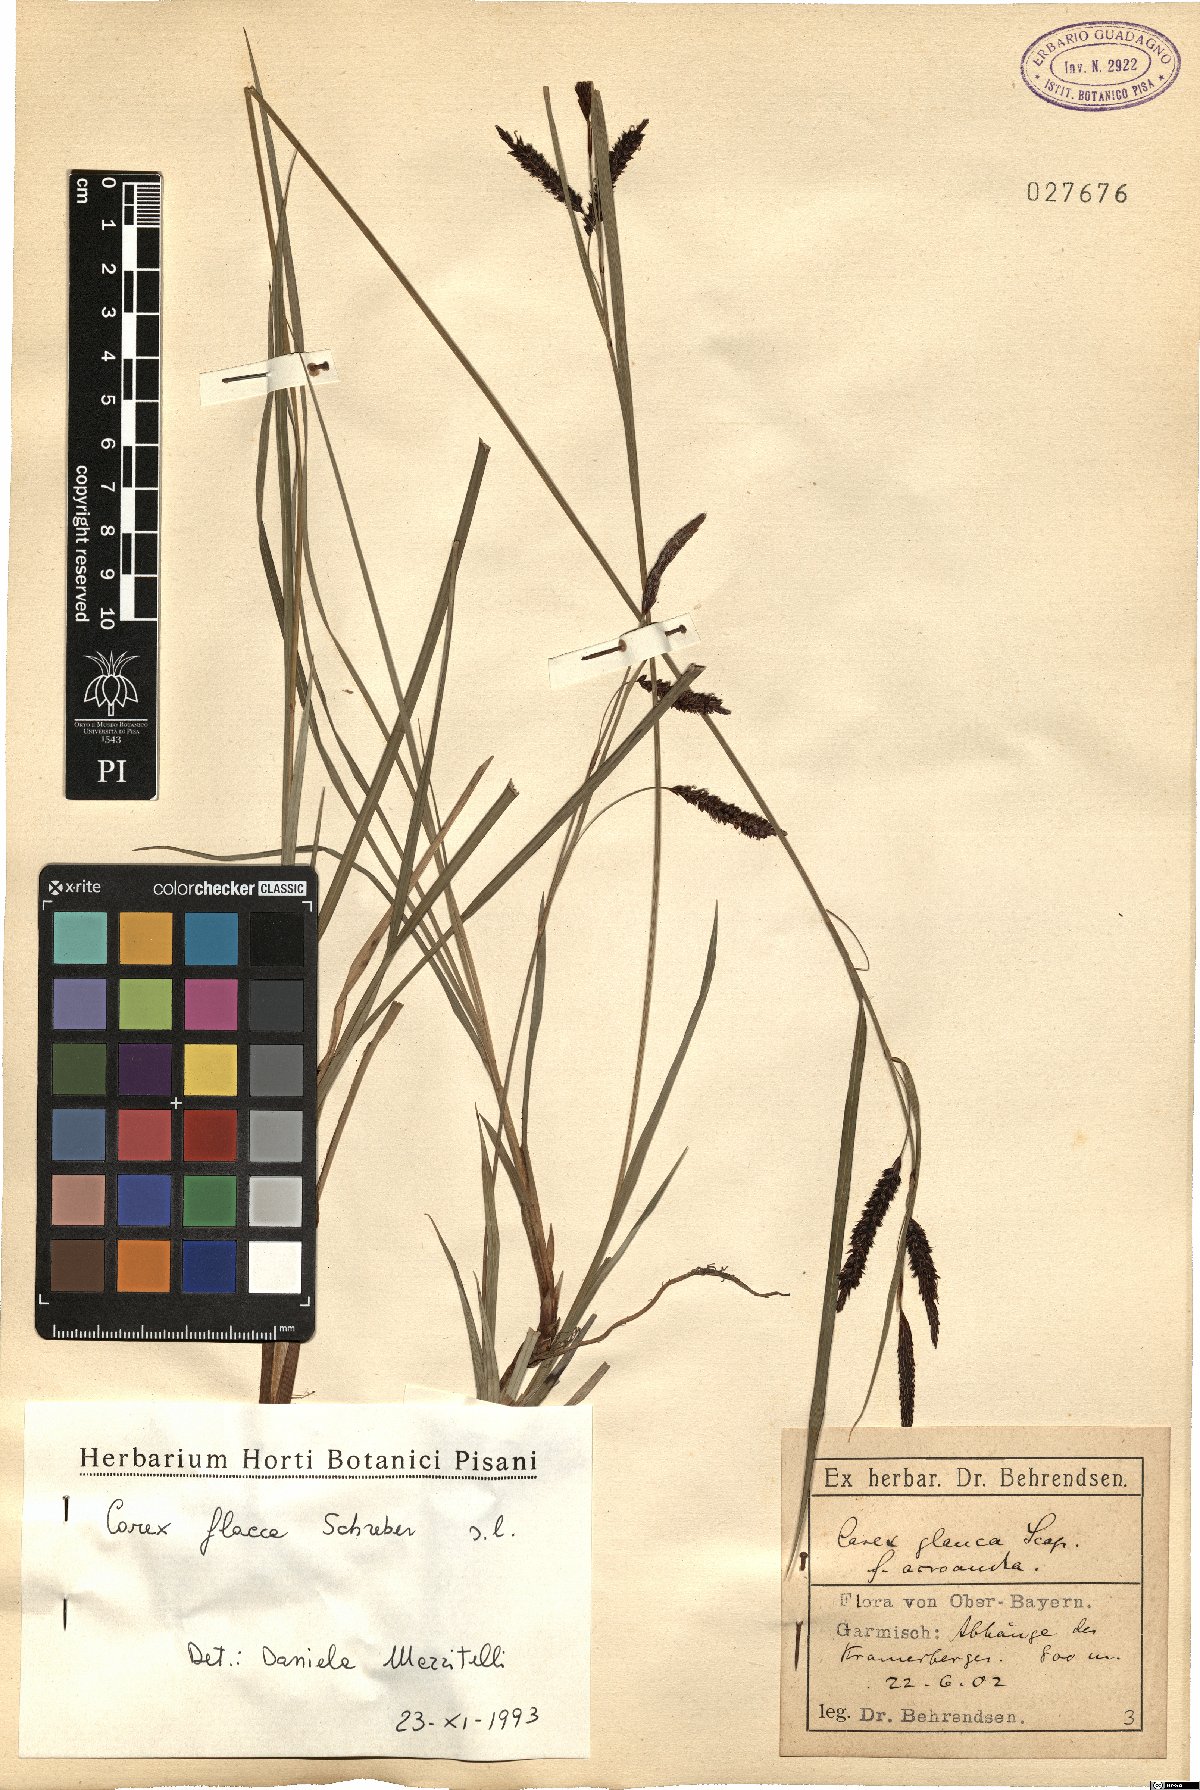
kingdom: Plantae
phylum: Tracheophyta
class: Liliopsida
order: Poales
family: Cyperaceae
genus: Carex
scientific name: Carex flacca
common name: Glaucous sedge
